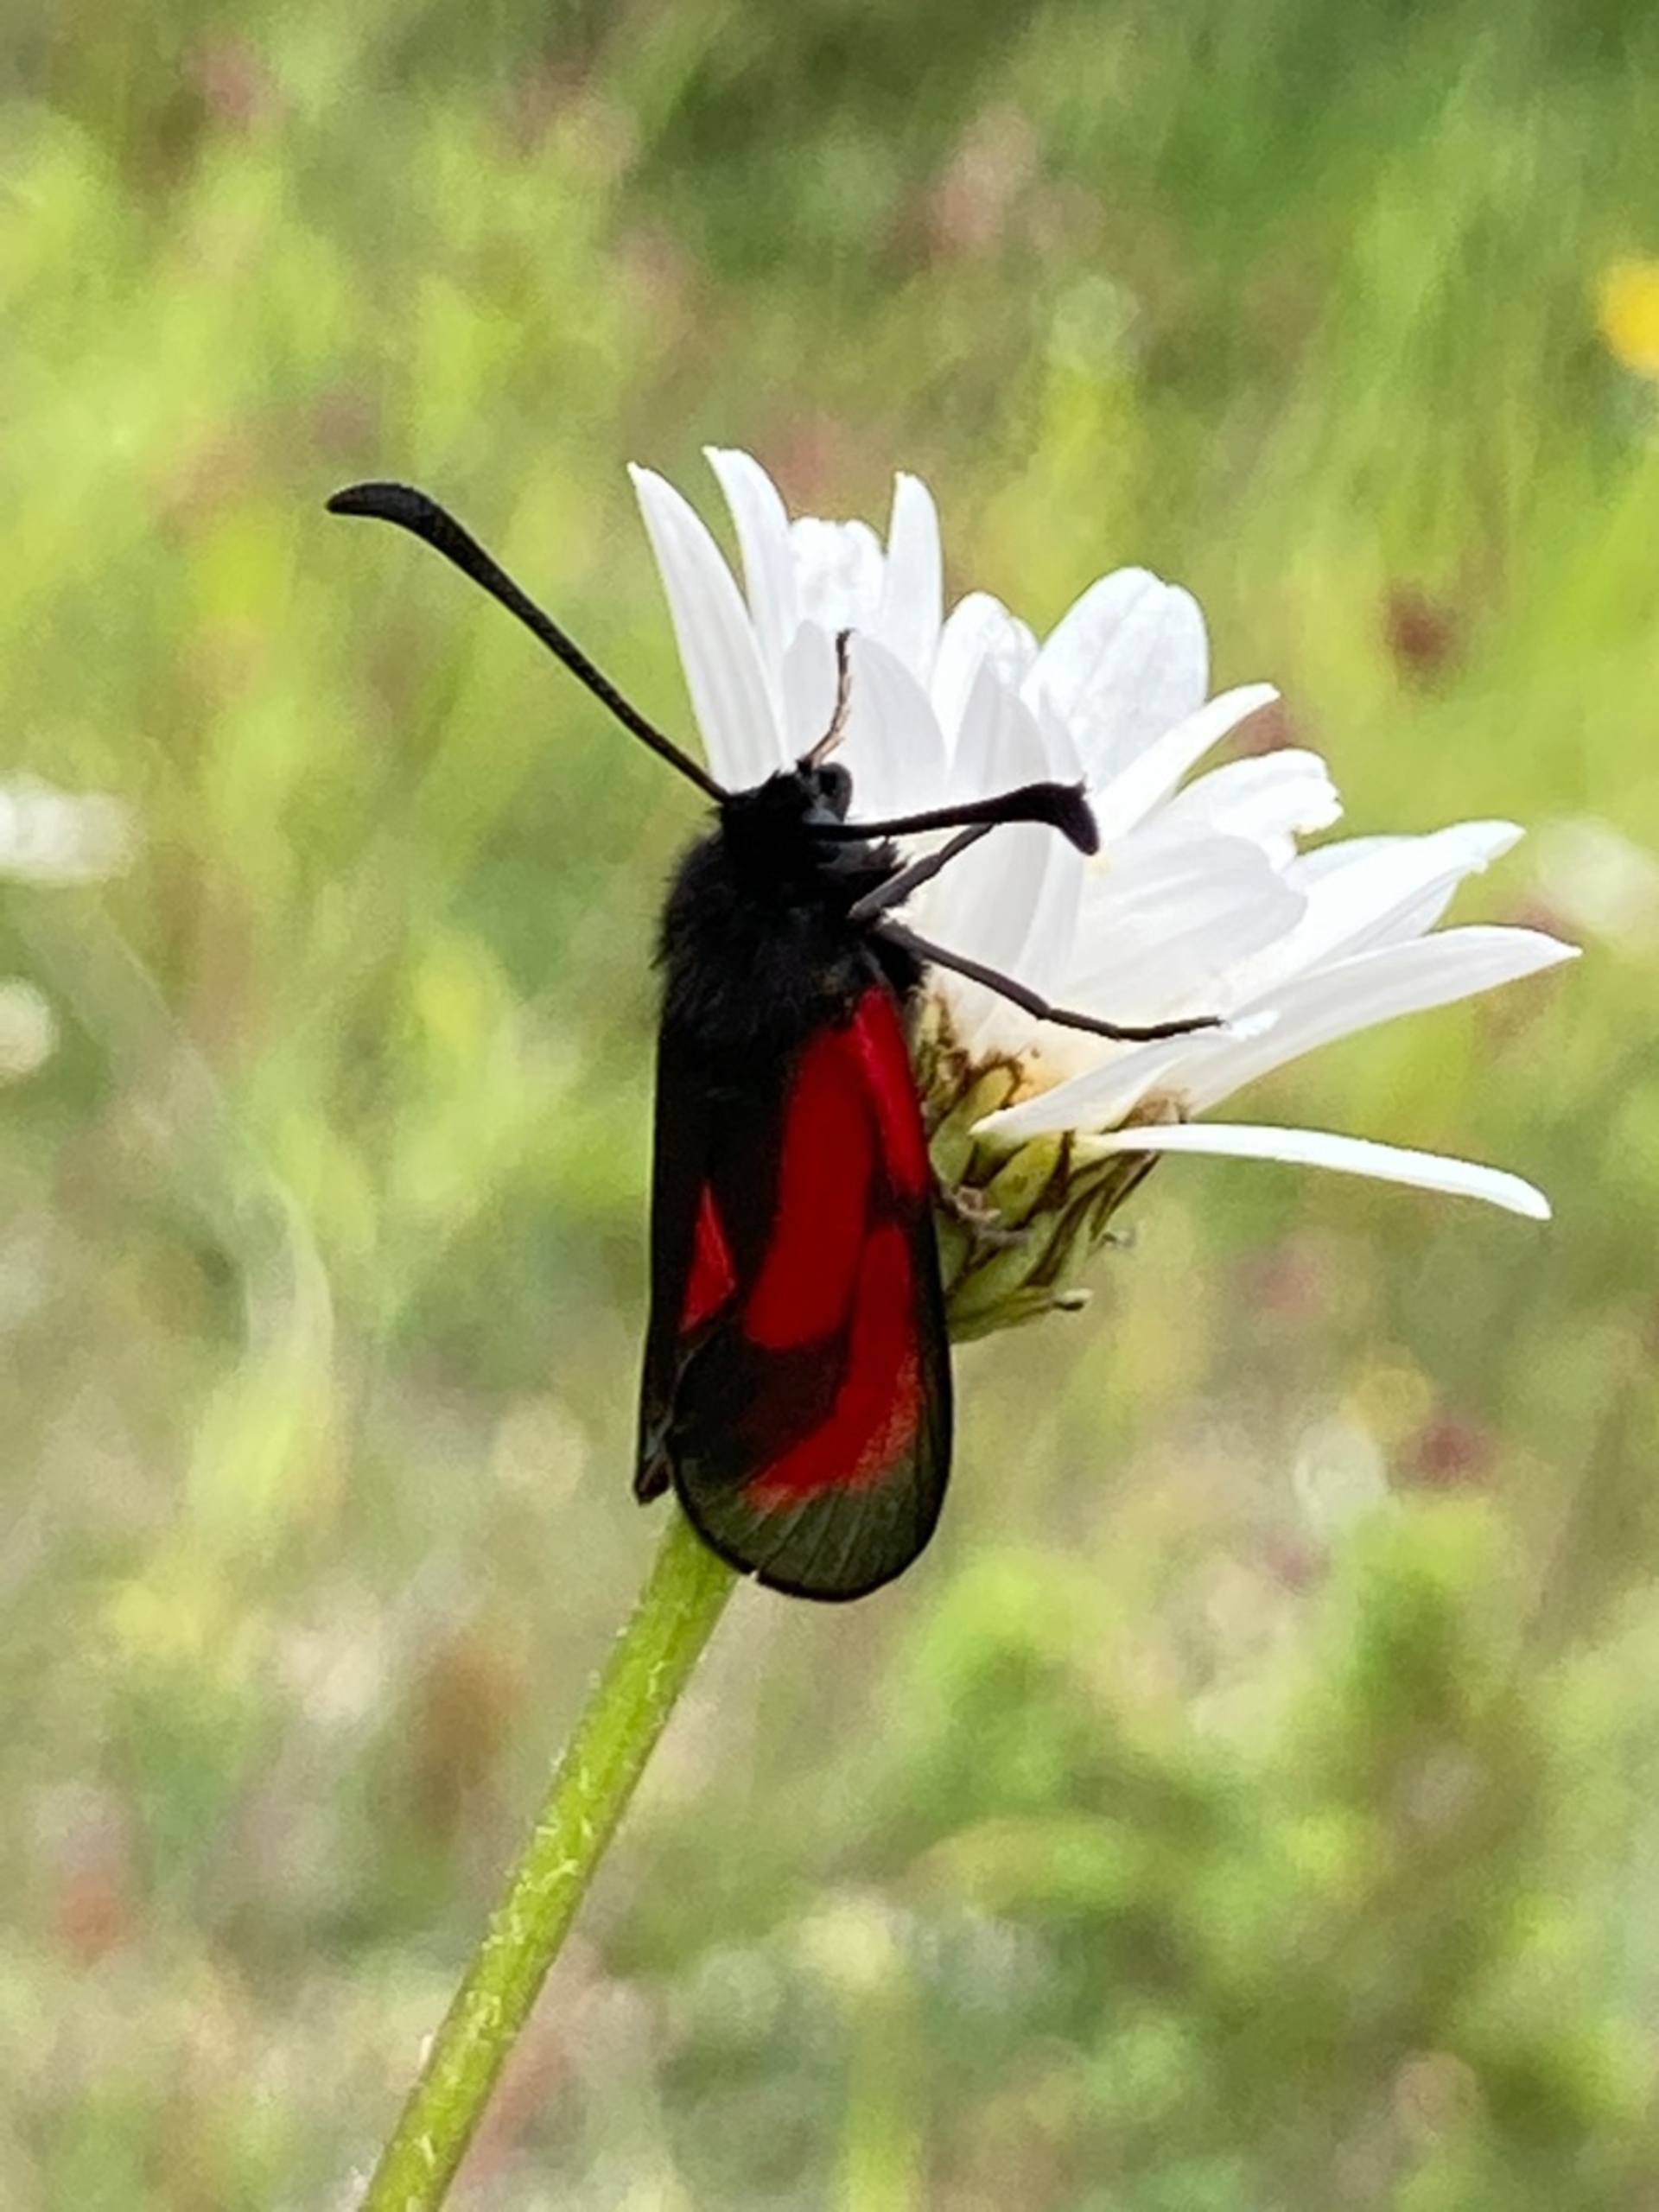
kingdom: Animalia
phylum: Arthropoda
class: Insecta
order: Lepidoptera
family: Zygaenidae
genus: Zygaena
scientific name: Zygaena purpuralis
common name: Timiankøllesværmer
